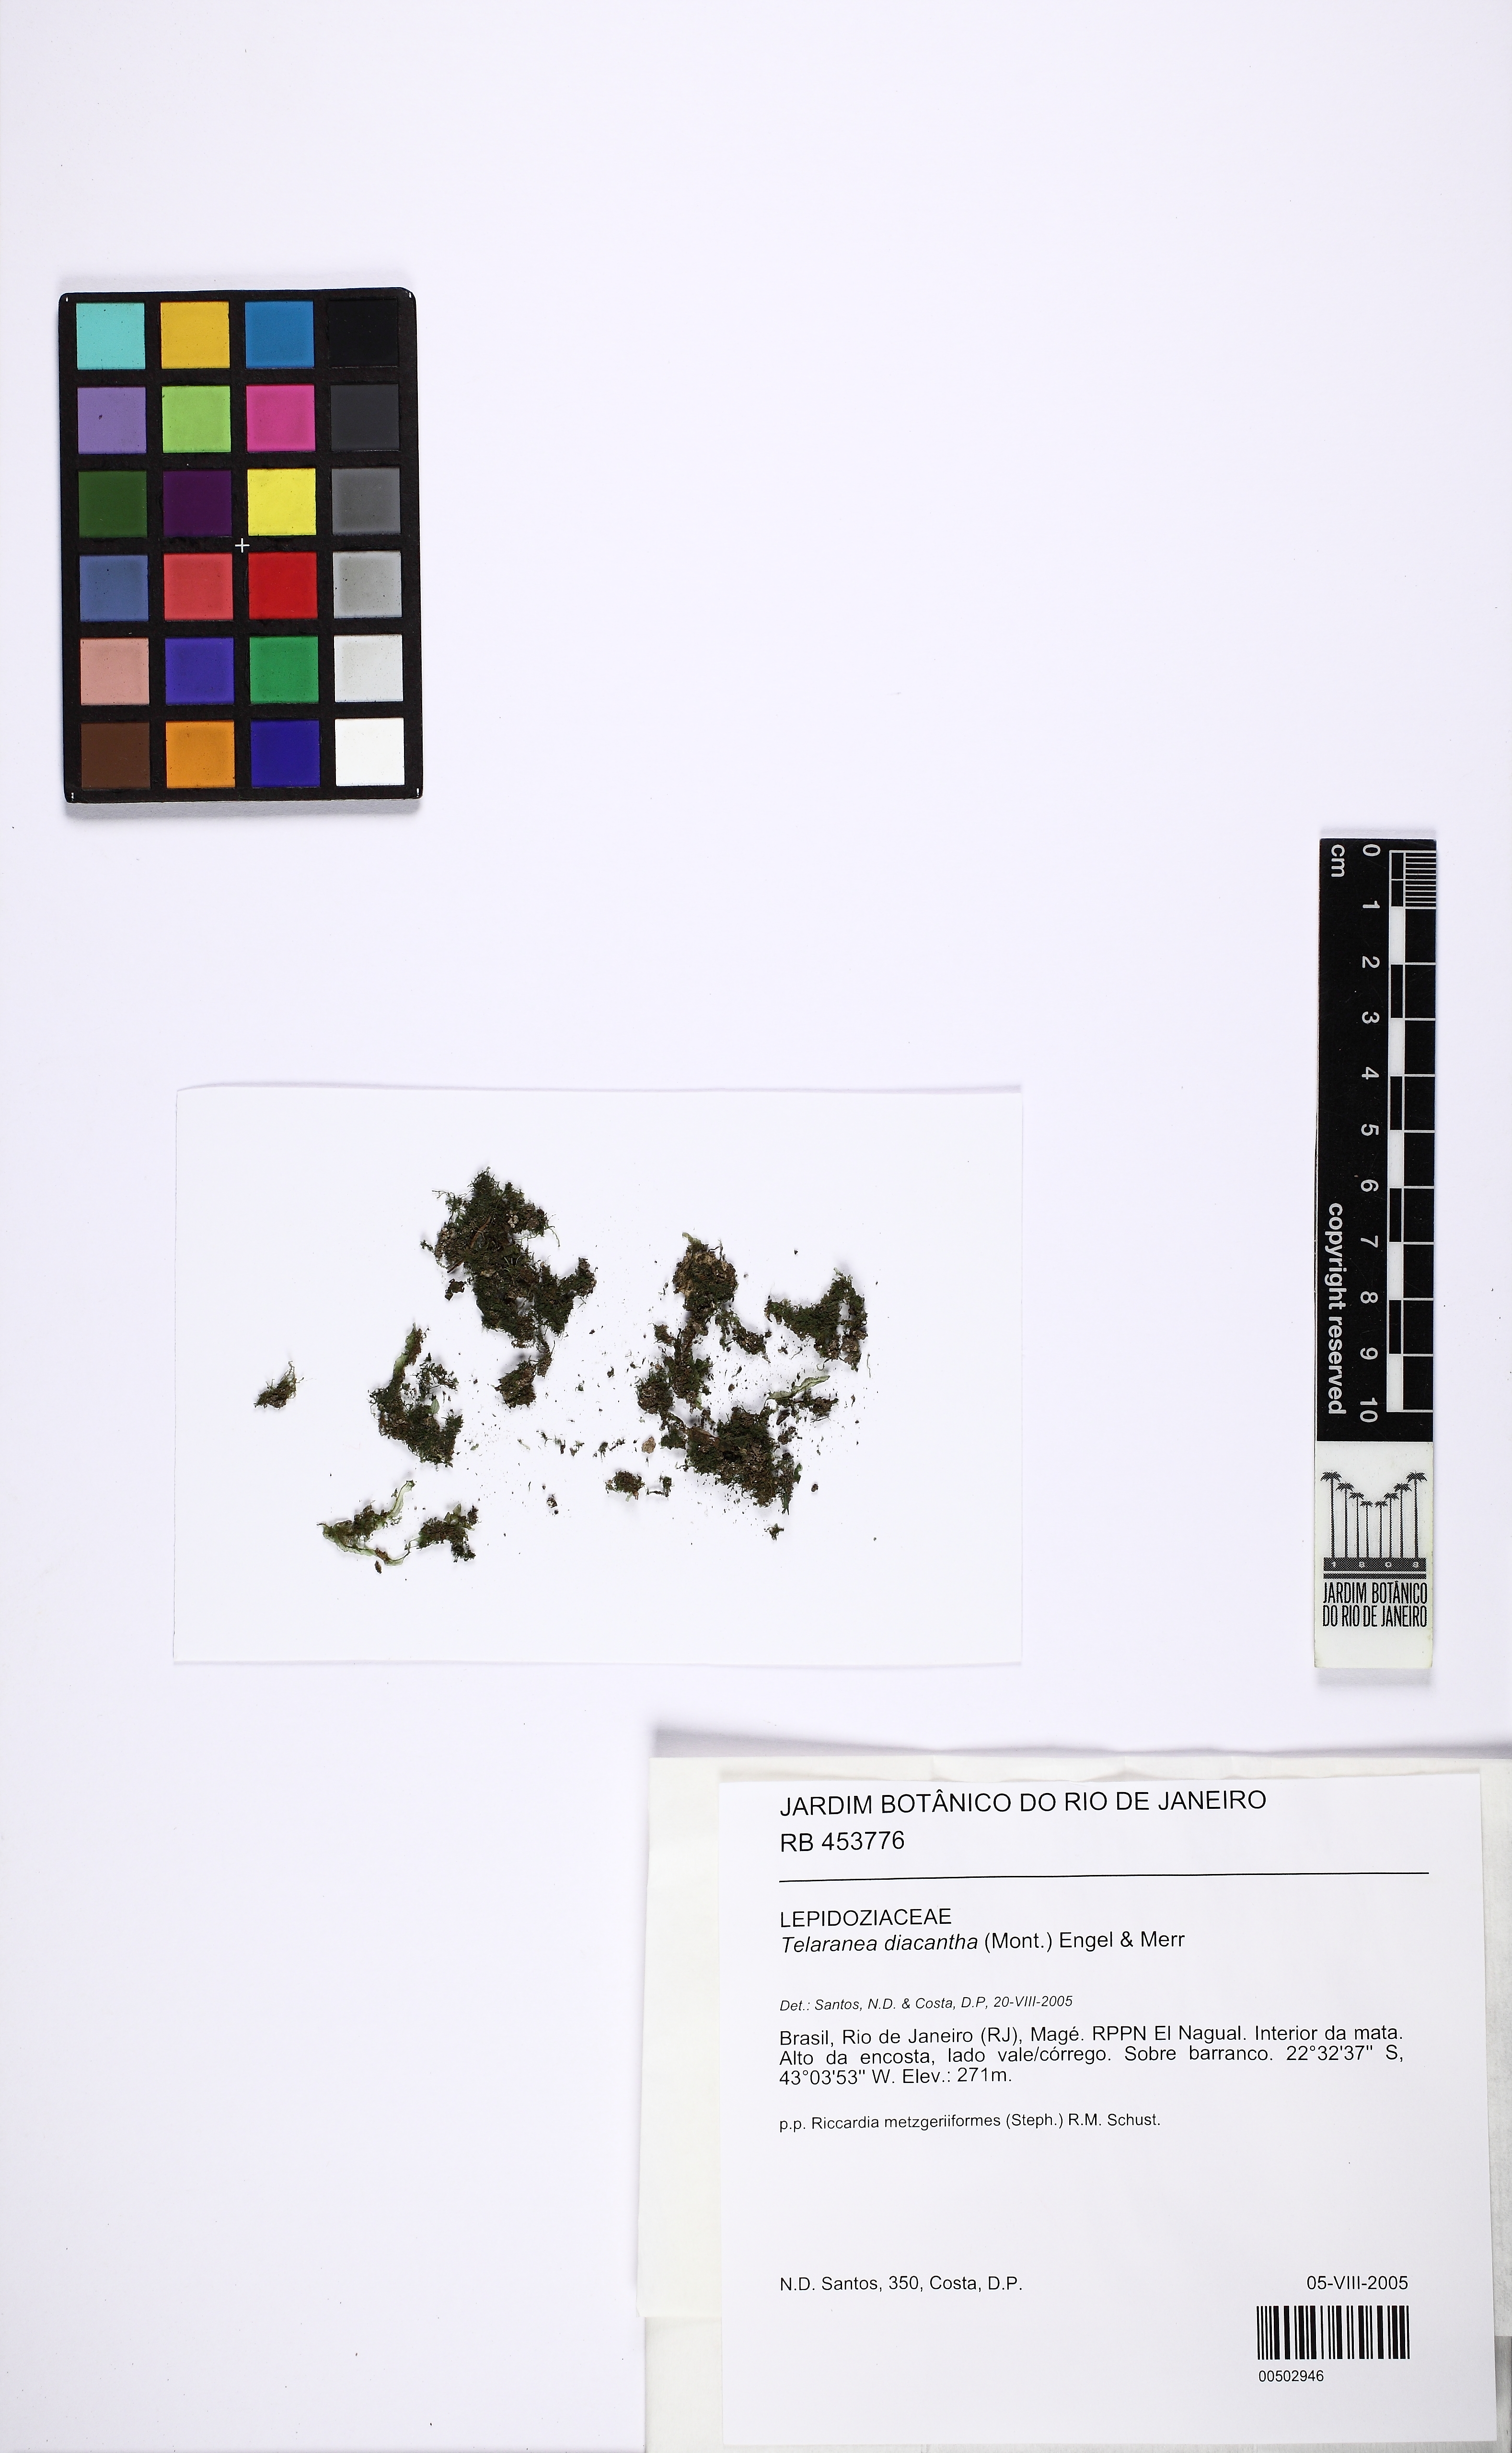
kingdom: Plantae
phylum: Marchantiophyta
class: Jungermanniopsida
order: Jungermanniales
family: Lepidoziaceae
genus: Telaranea
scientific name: Telaranea diacantha
